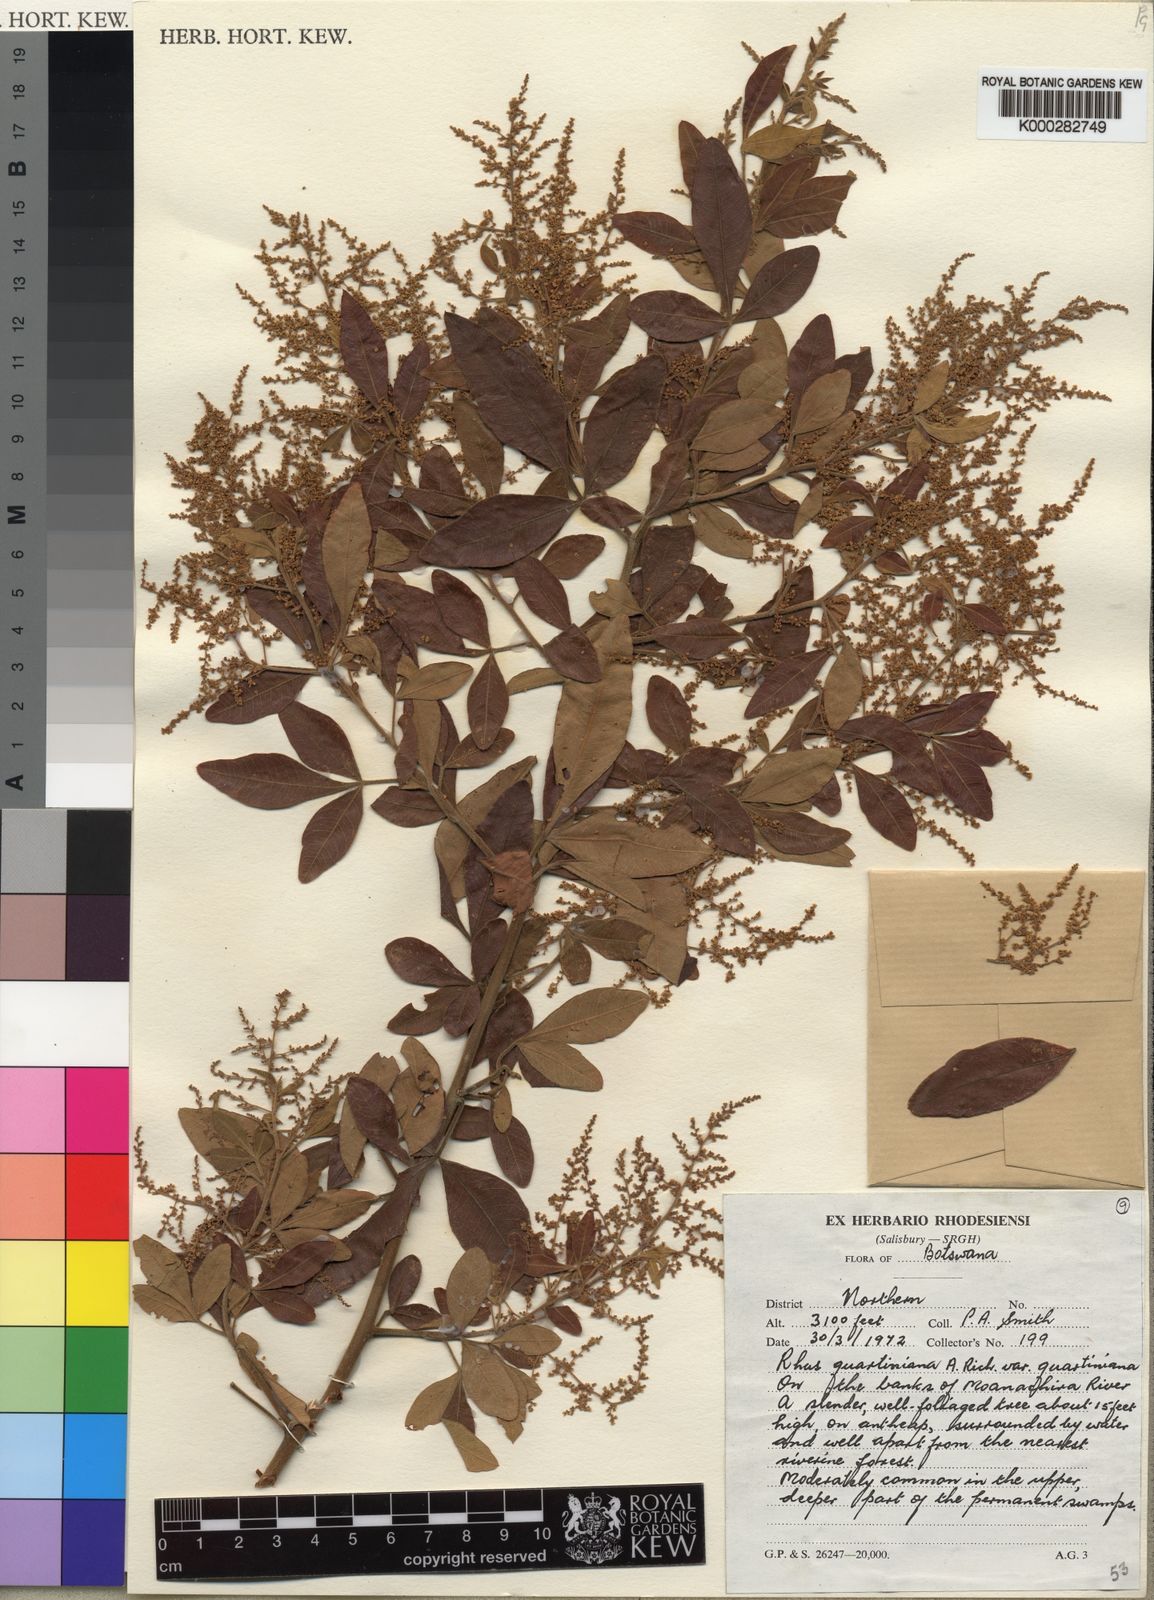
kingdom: Plantae
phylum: Tracheophyta
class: Magnoliopsida
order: Sapindales
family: Anacardiaceae
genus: Searsia
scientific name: Searsia quartiniana
